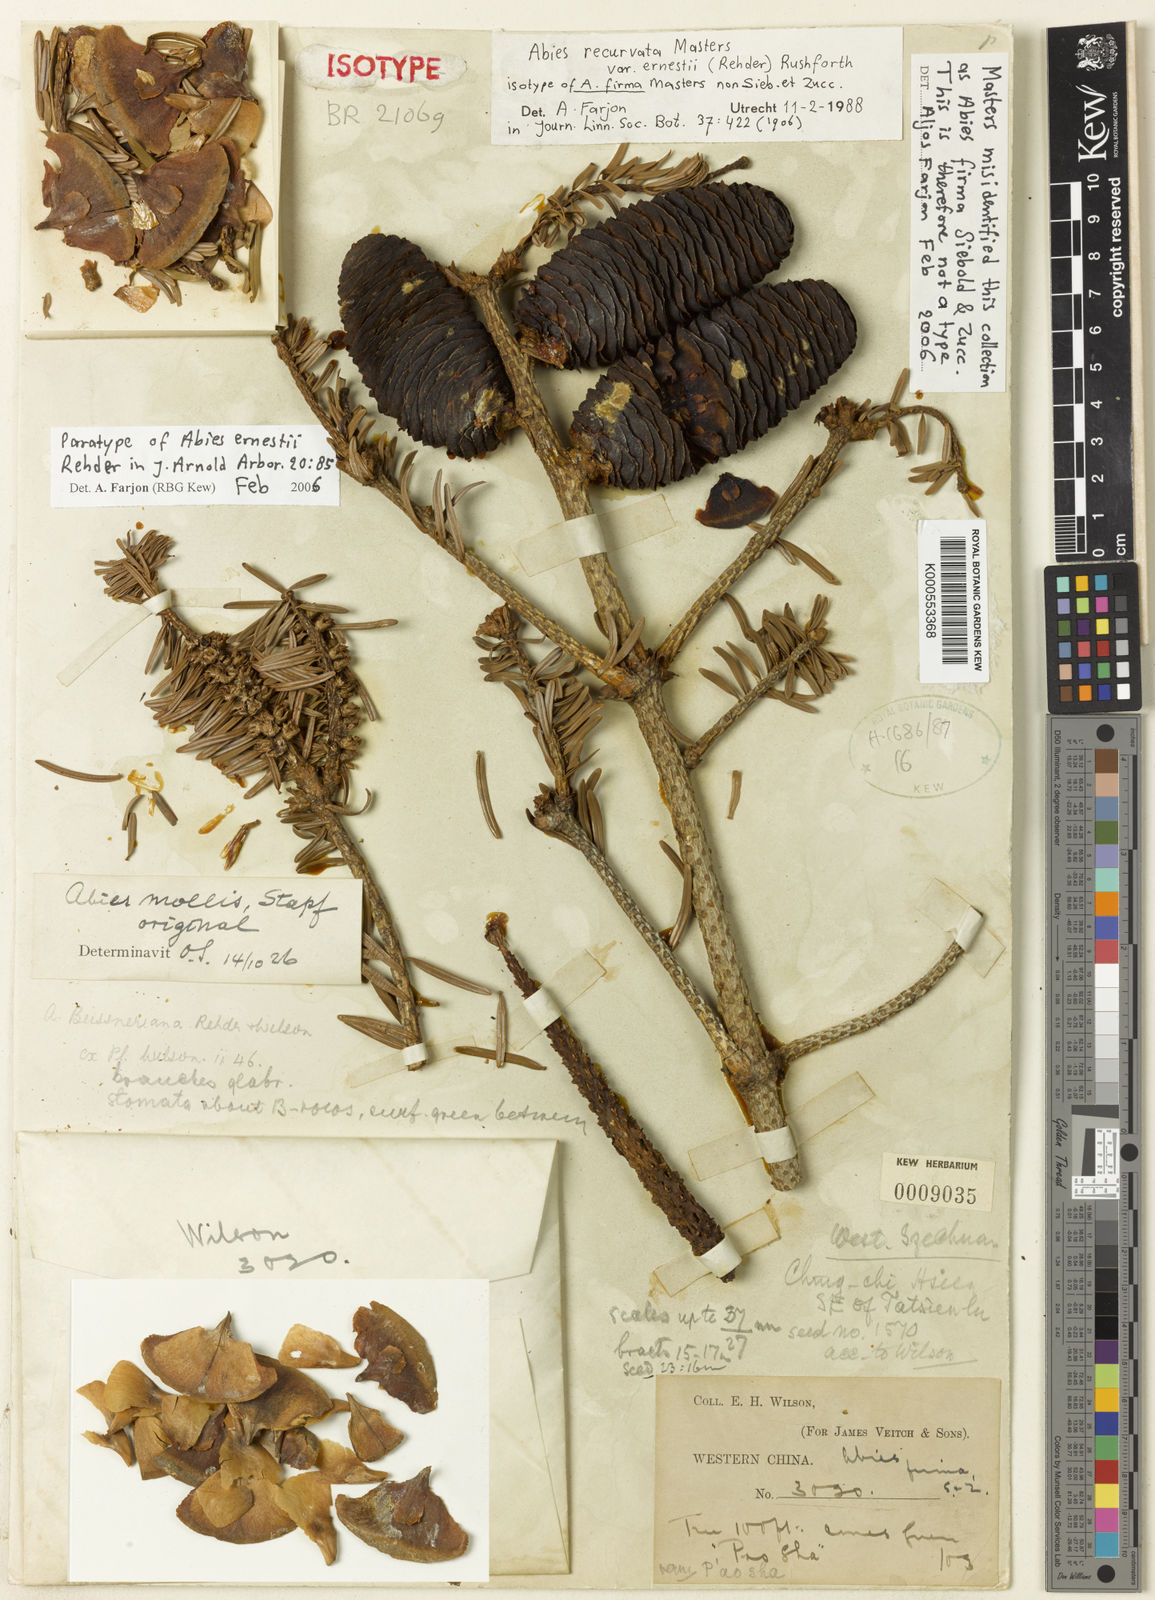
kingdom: Plantae
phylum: Tracheophyta
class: Pinopsida
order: Pinales
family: Pinaceae
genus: Abies
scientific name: Abies recurvata
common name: Min fir
